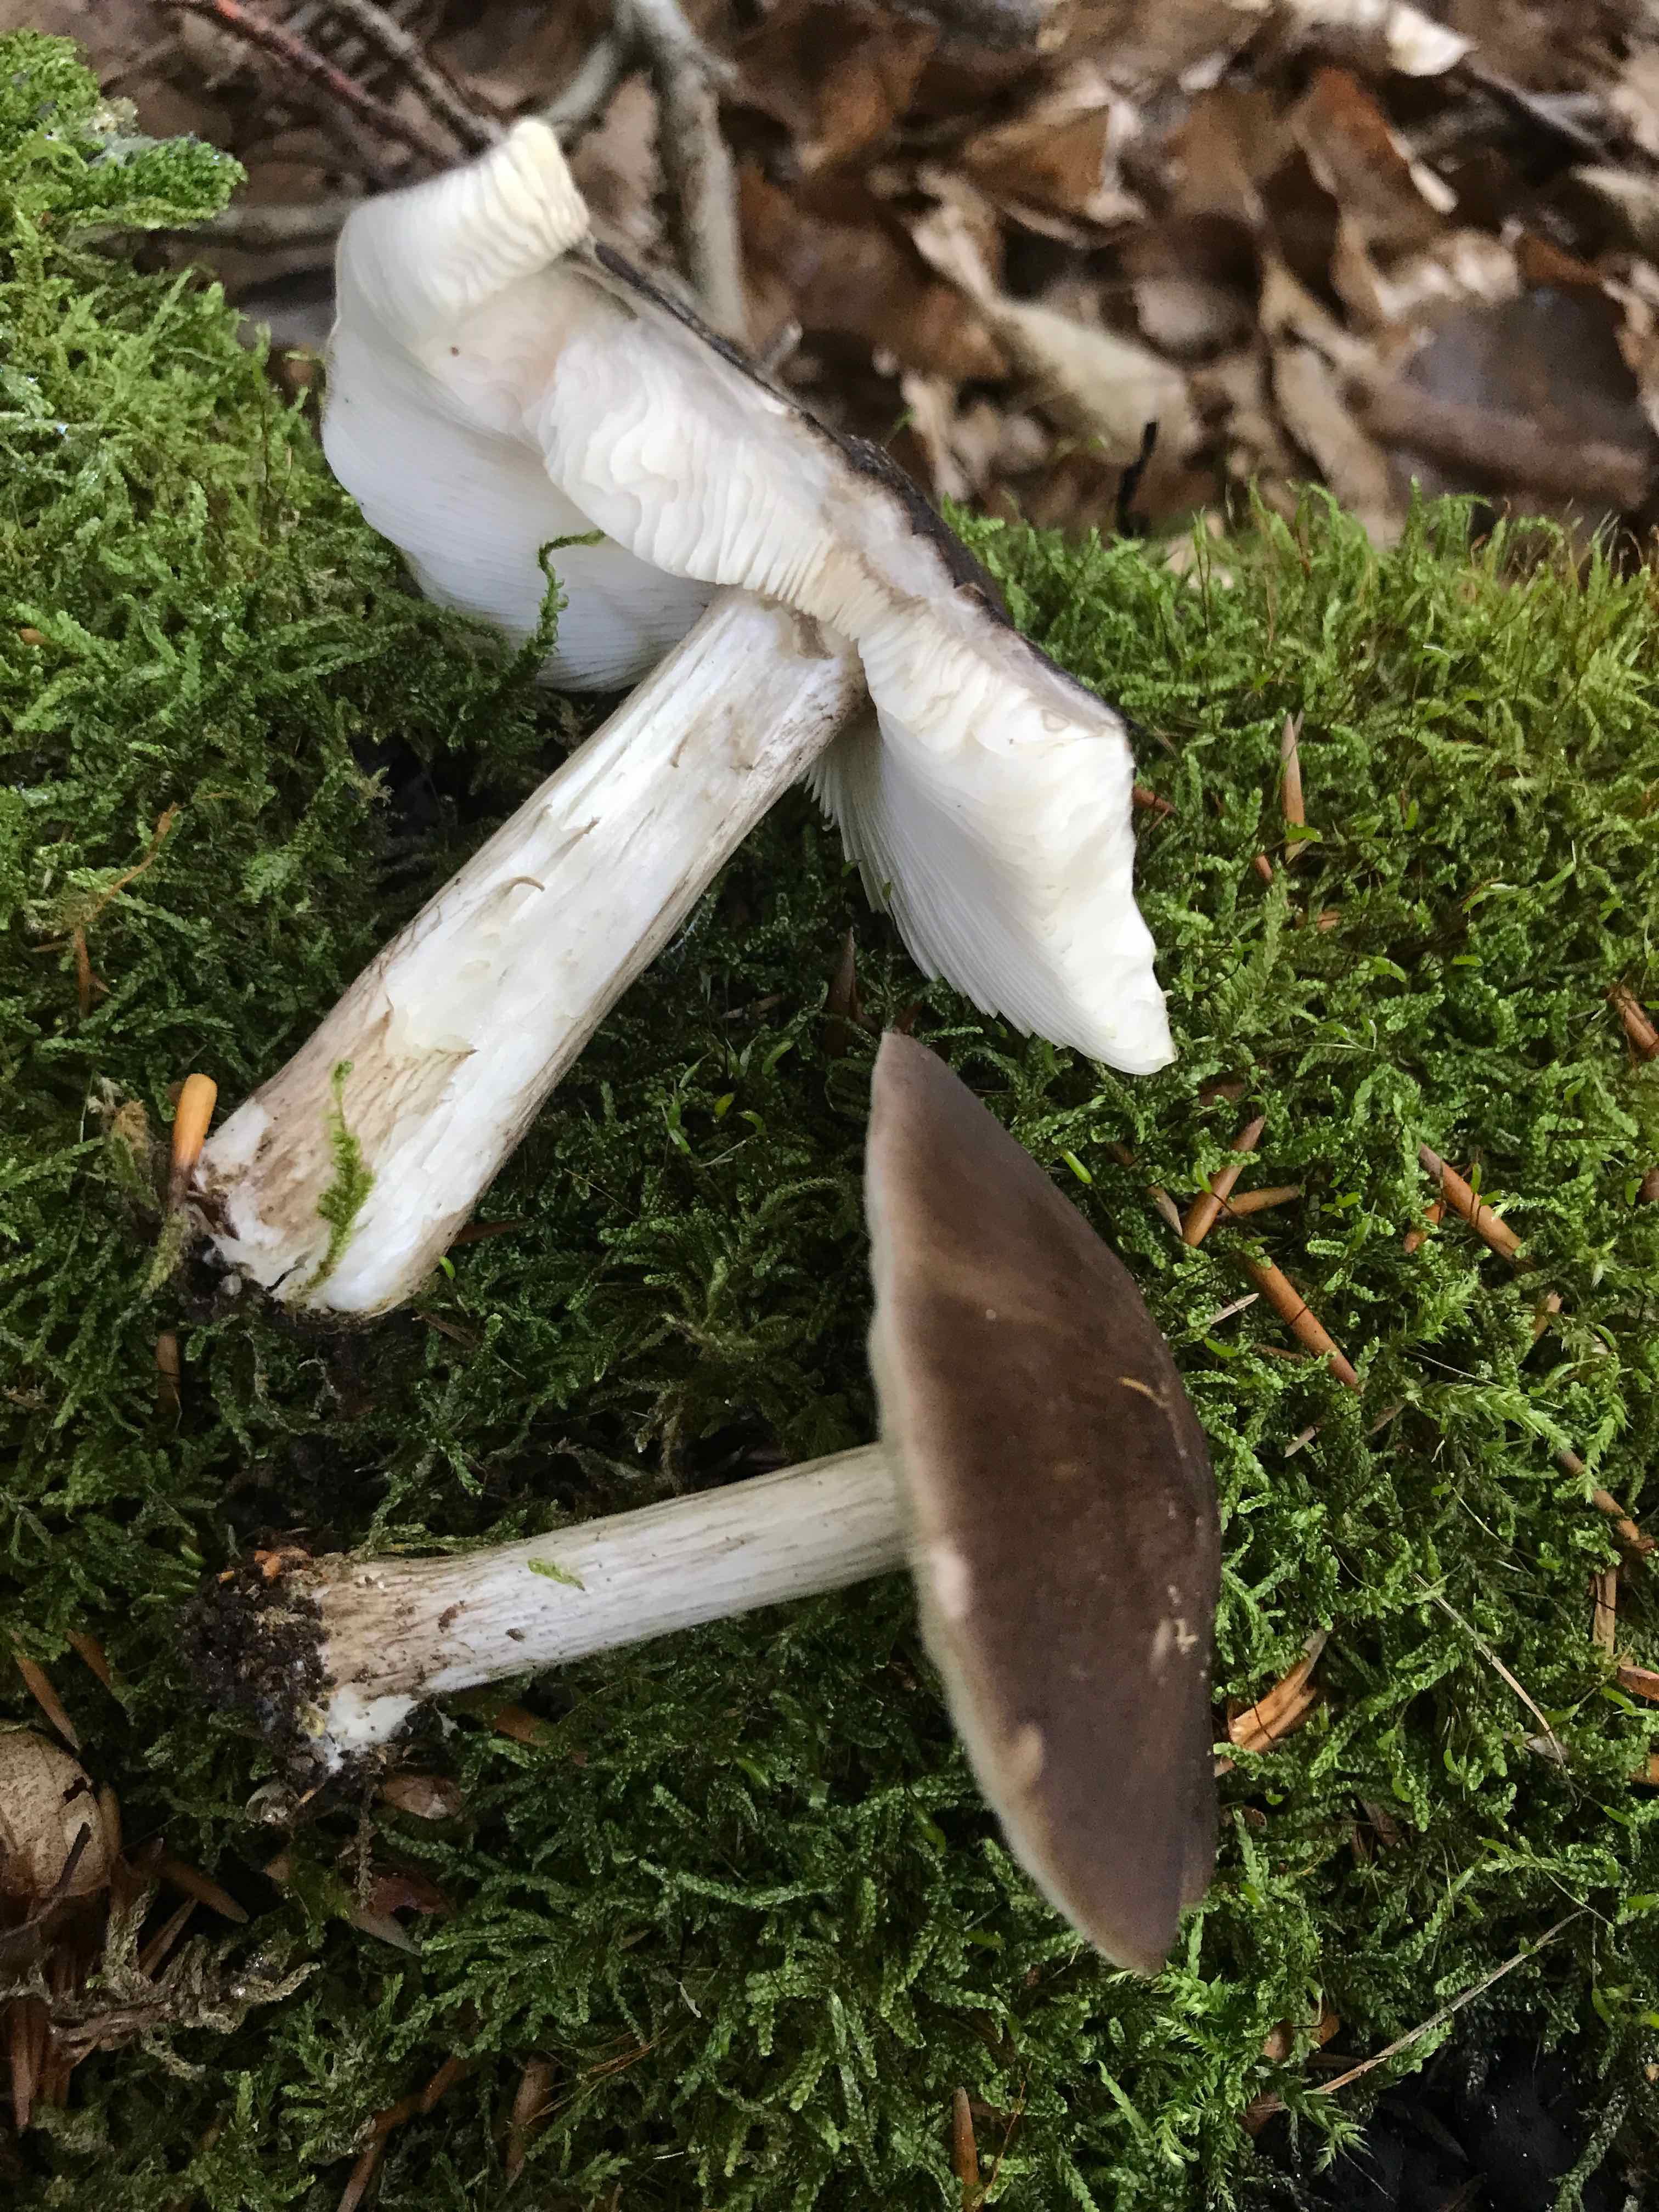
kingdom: Fungi
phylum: Basidiomycota
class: Agaricomycetes
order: Agaricales
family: Pluteaceae
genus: Pluteus
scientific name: Pluteus cervinus
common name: sodfarvet skærmhat
